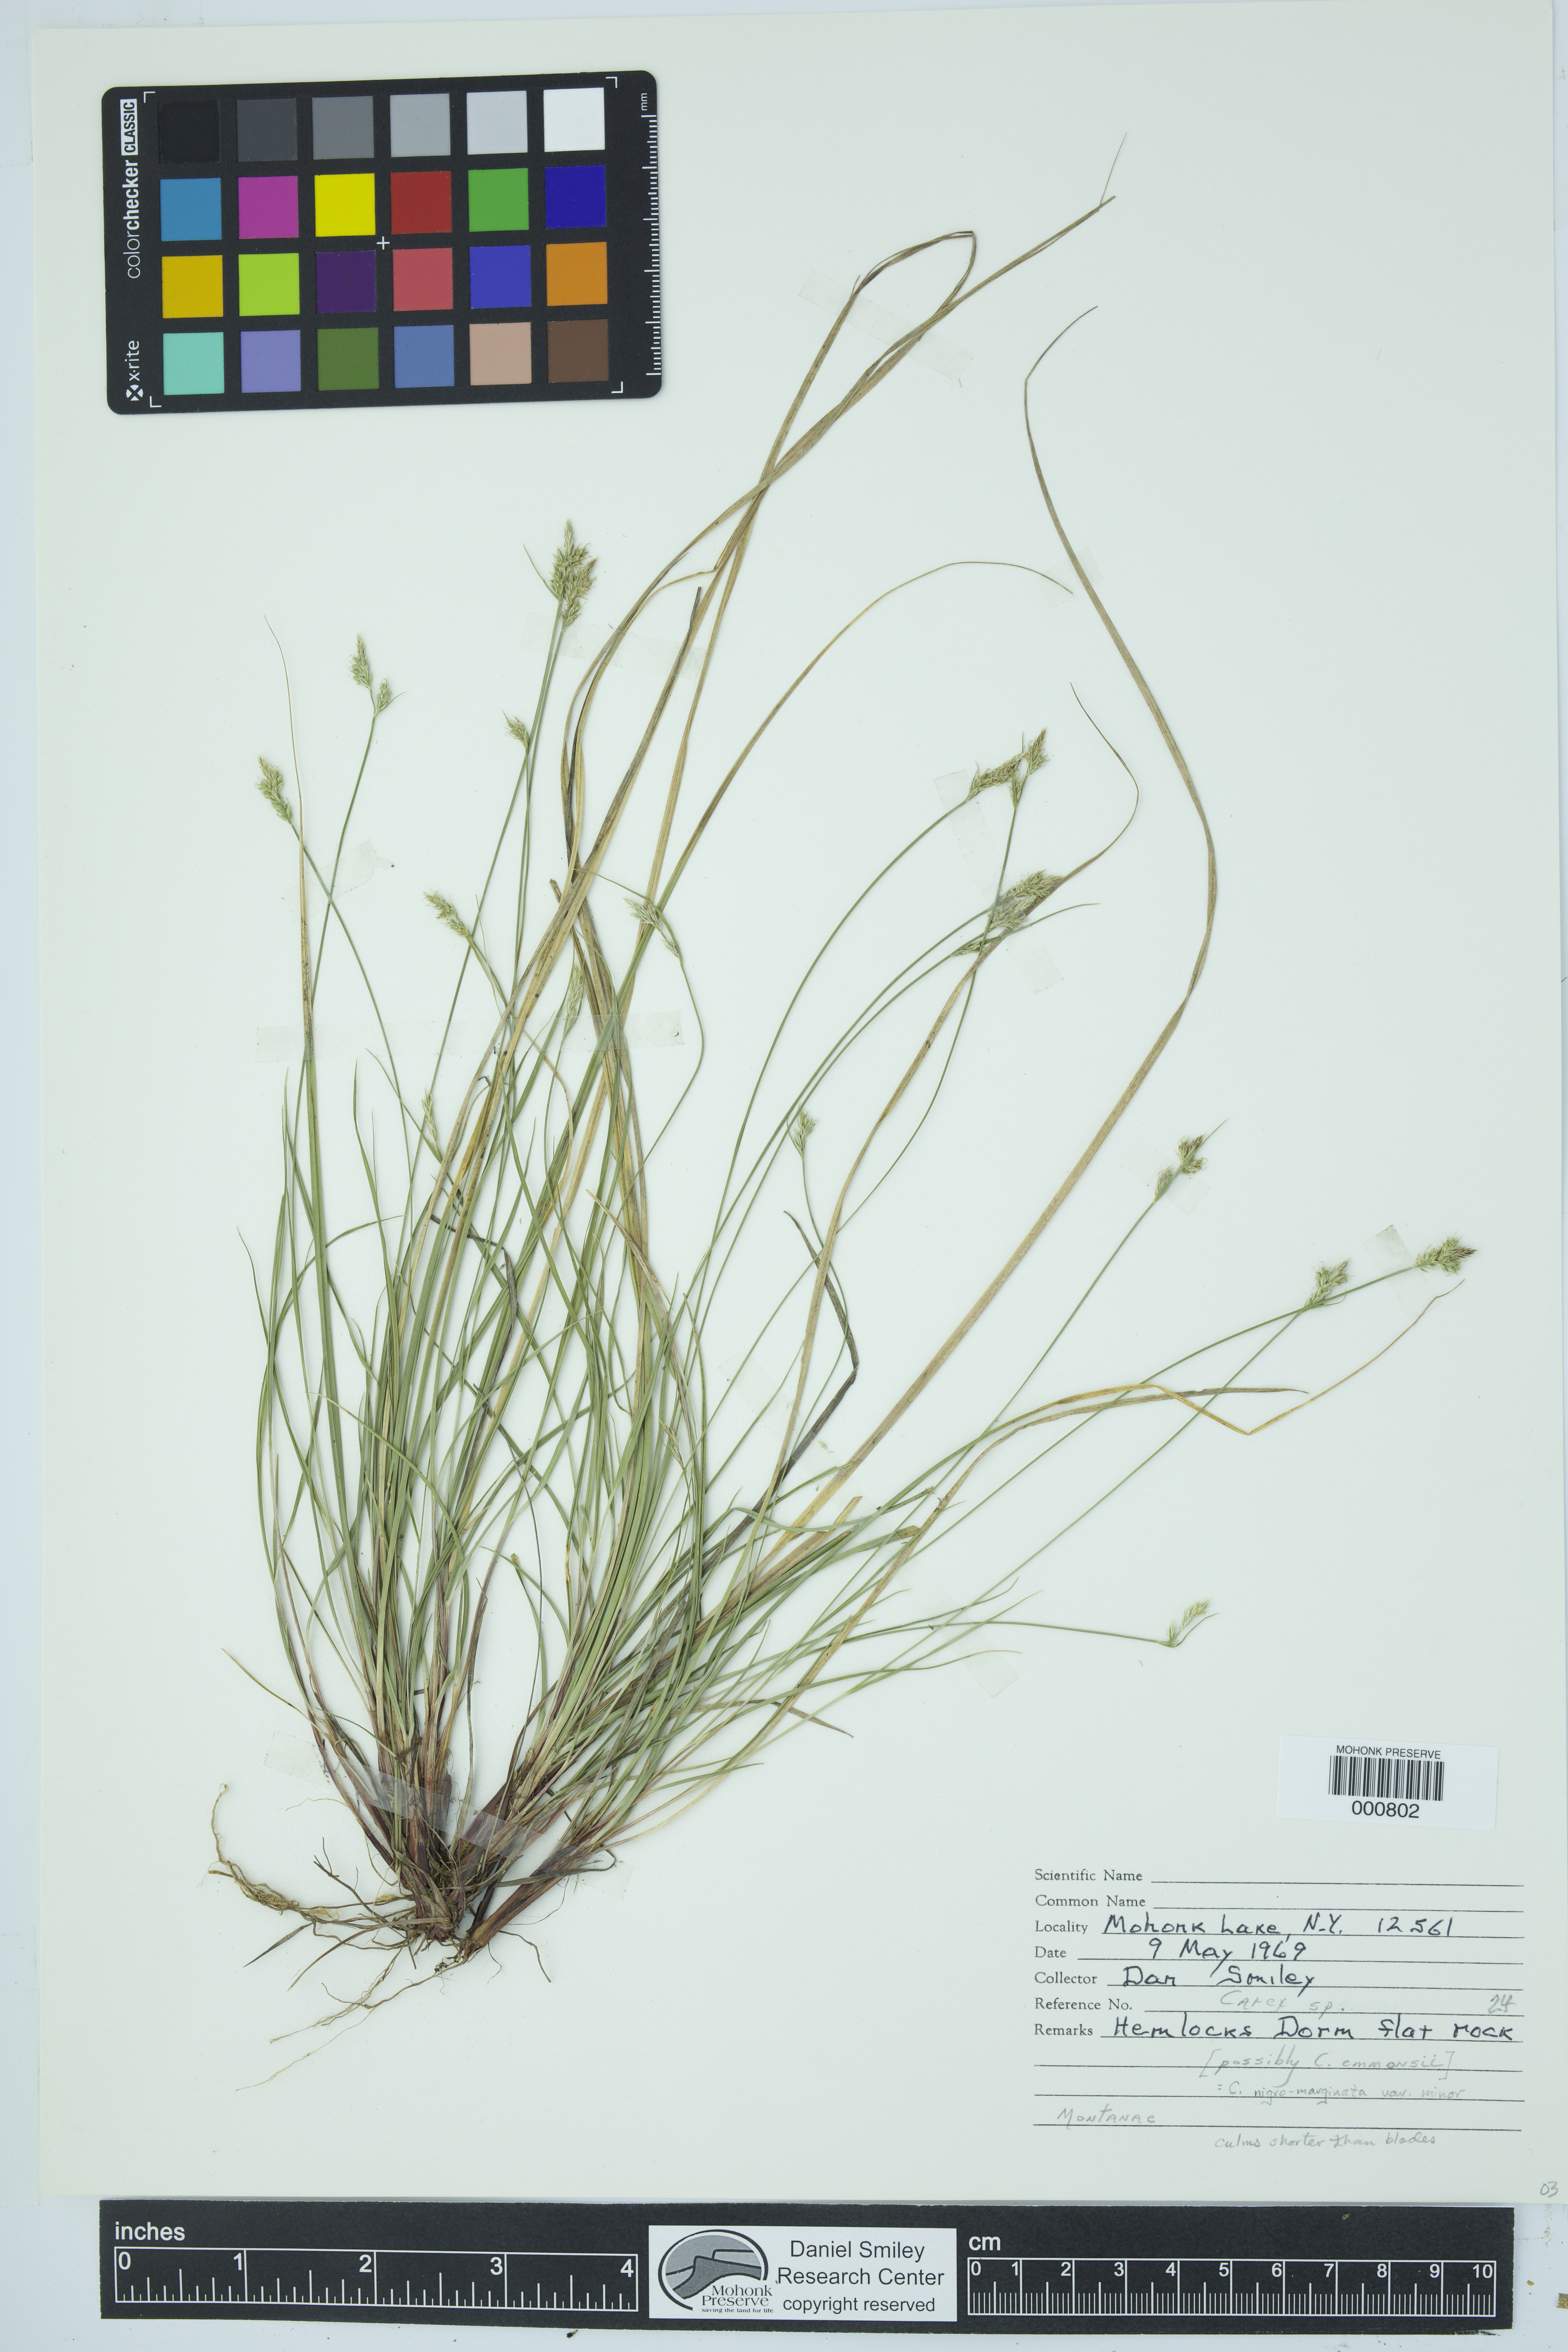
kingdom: Plantae
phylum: Tracheophyta
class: Liliopsida
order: Poales
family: Cyperaceae
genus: Carex
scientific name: Carex nigromarginata
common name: Black-edged sedge
